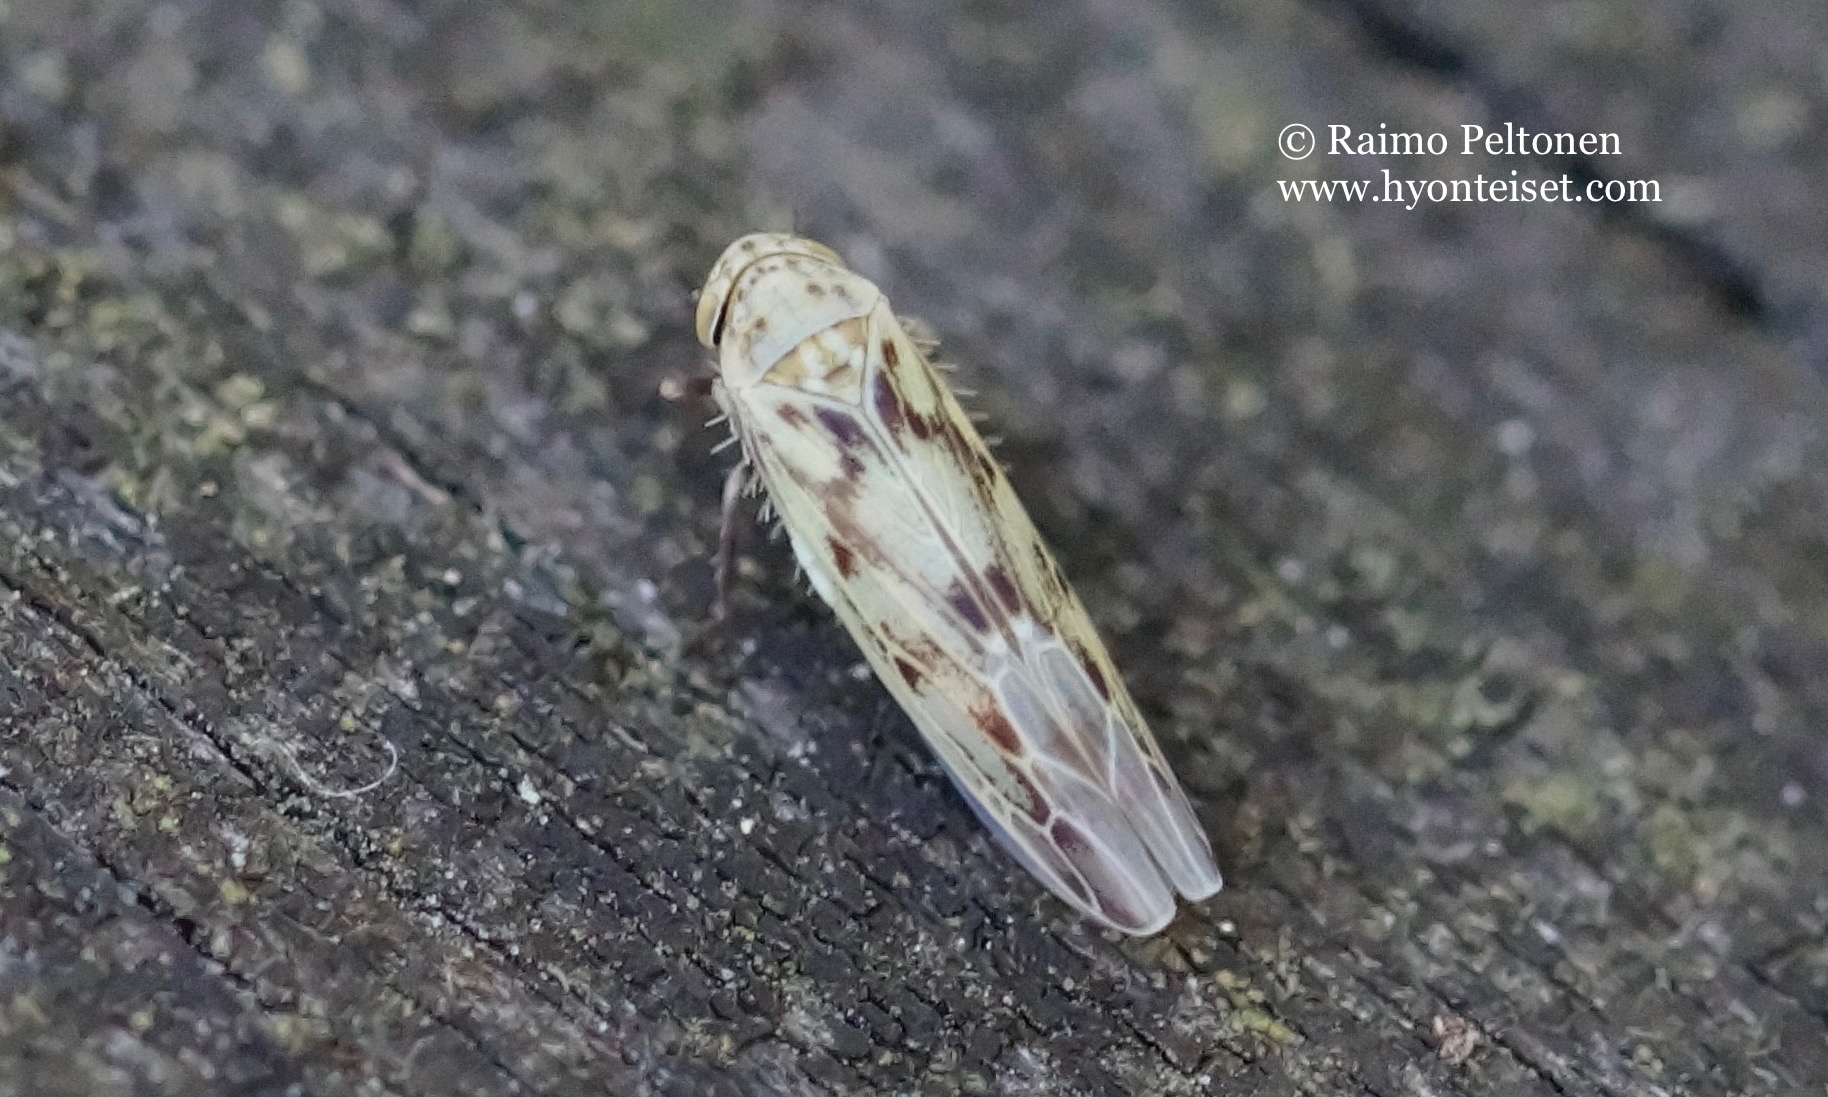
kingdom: Animalia
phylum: Arthropoda
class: Insecta
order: Hemiptera
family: Cicadellidae
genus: Balclutha
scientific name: Balclutha punctata
